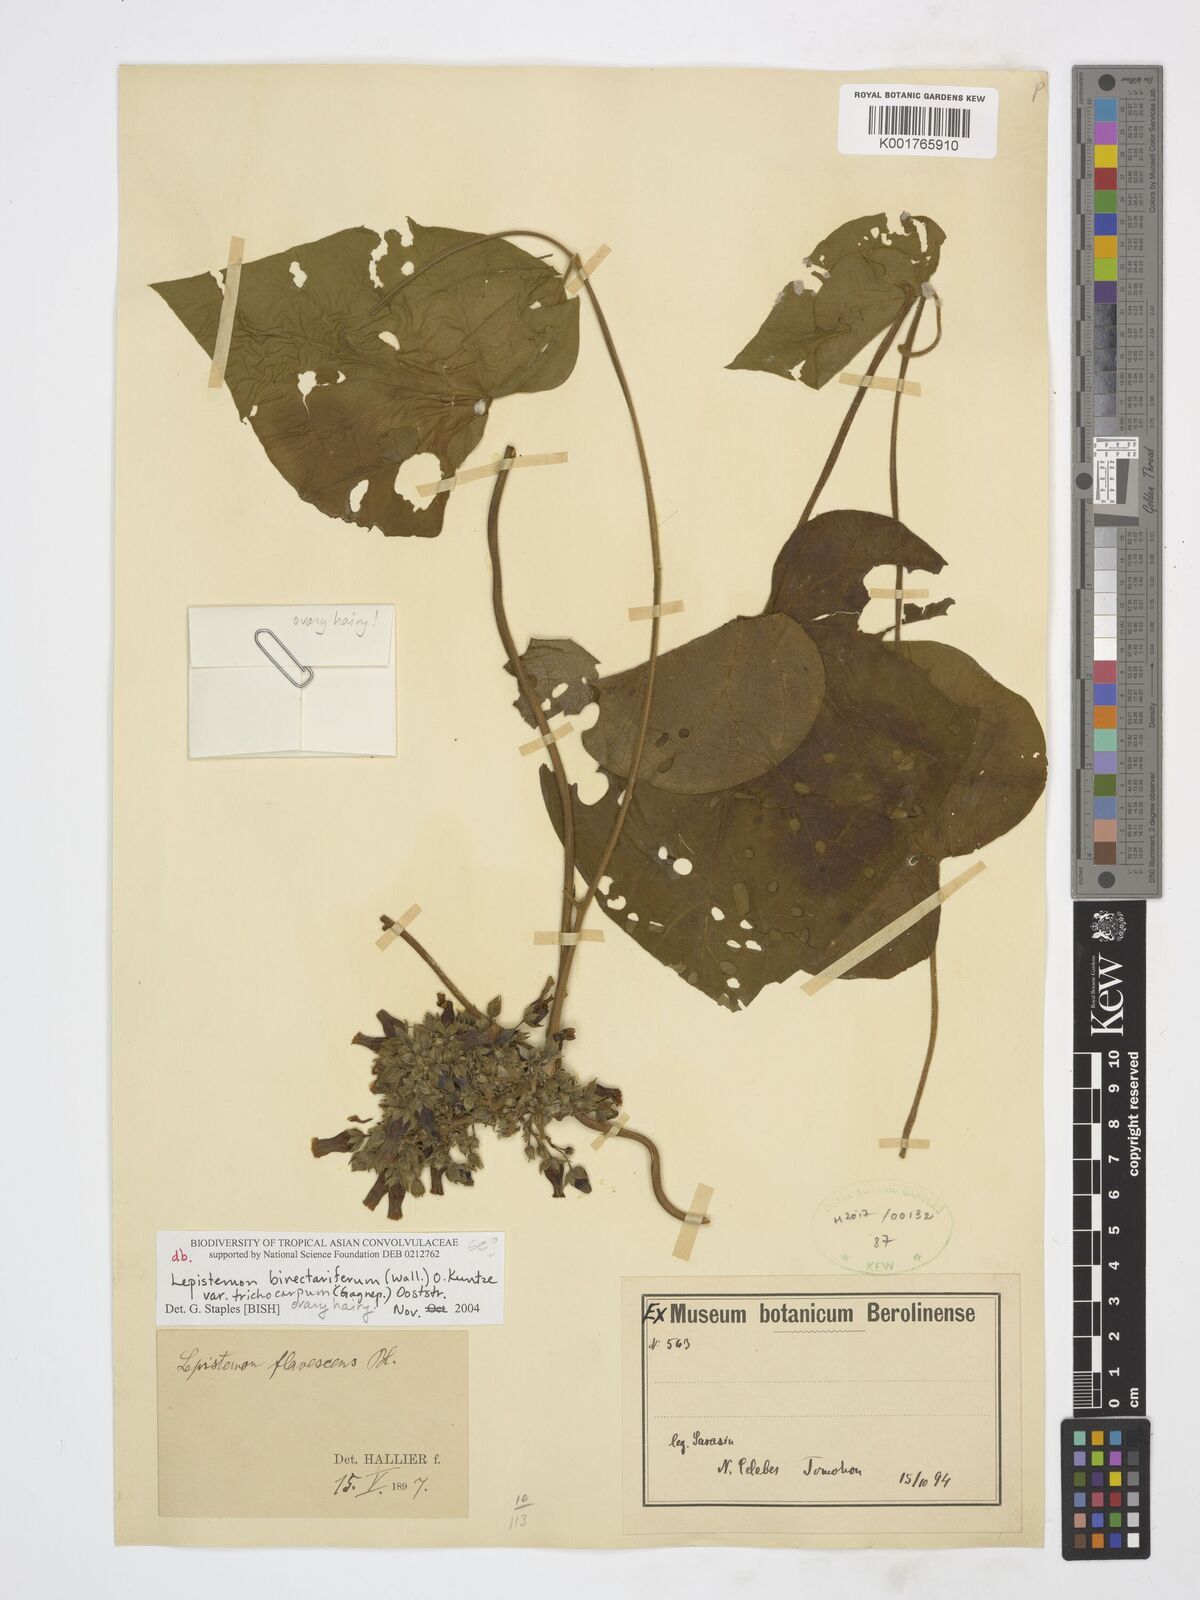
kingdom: Plantae
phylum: Tracheophyta
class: Magnoliopsida
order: Solanales
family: Convolvulaceae
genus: Lepistemon
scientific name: Lepistemon
